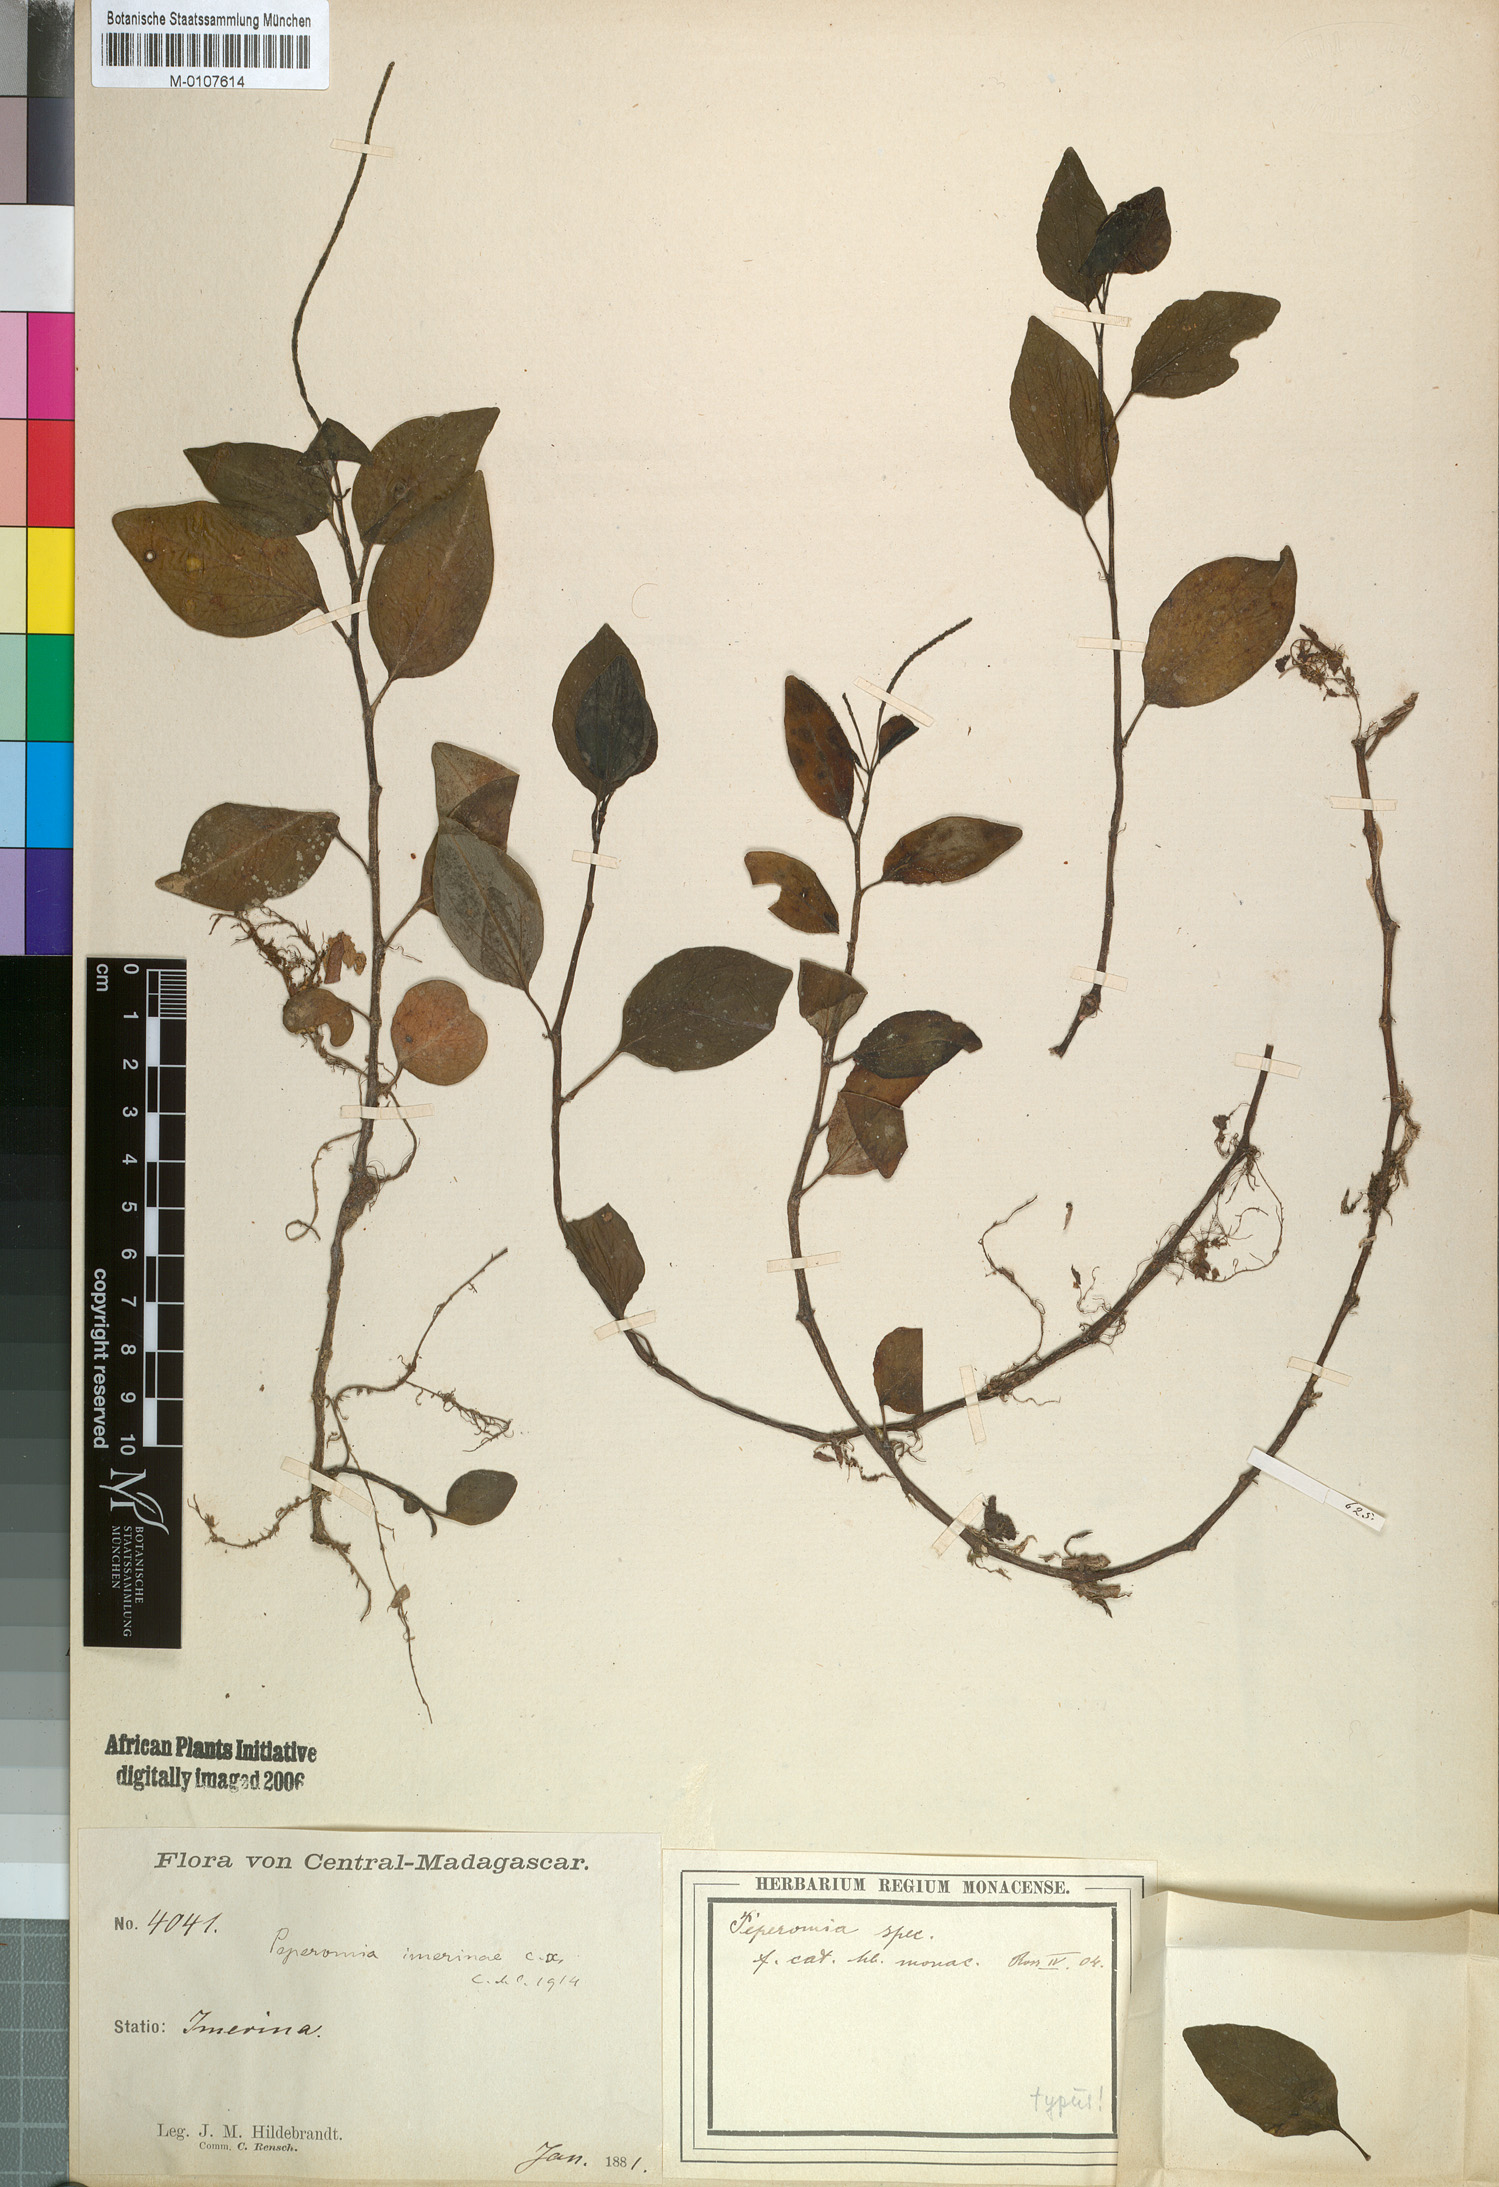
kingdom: Plantae
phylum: Tracheophyta
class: Magnoliopsida
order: Piperales
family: Piperaceae
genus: Peperomia
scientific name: Peperomia imerinae
